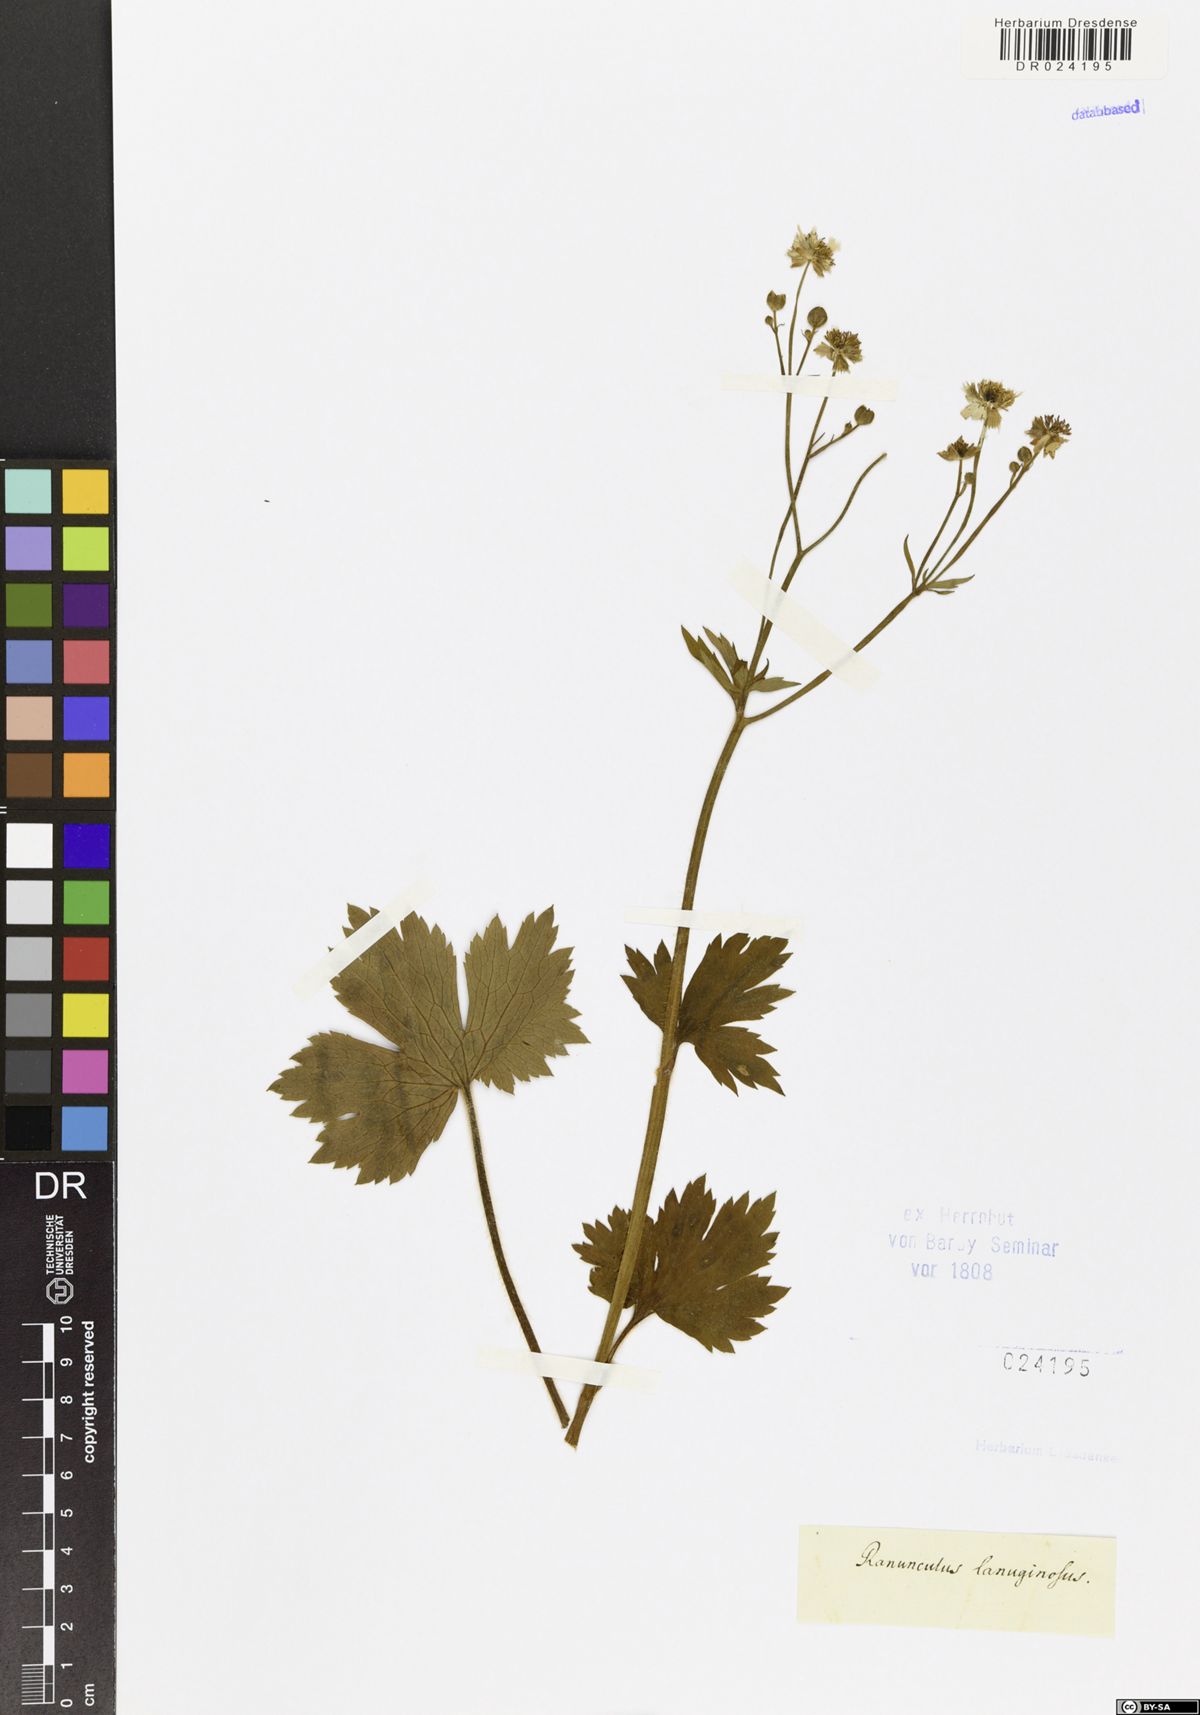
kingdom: Plantae
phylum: Tracheophyta
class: Magnoliopsida
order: Ranunculales
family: Ranunculaceae
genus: Ranunculus
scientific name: Ranunculus lanuginosus
